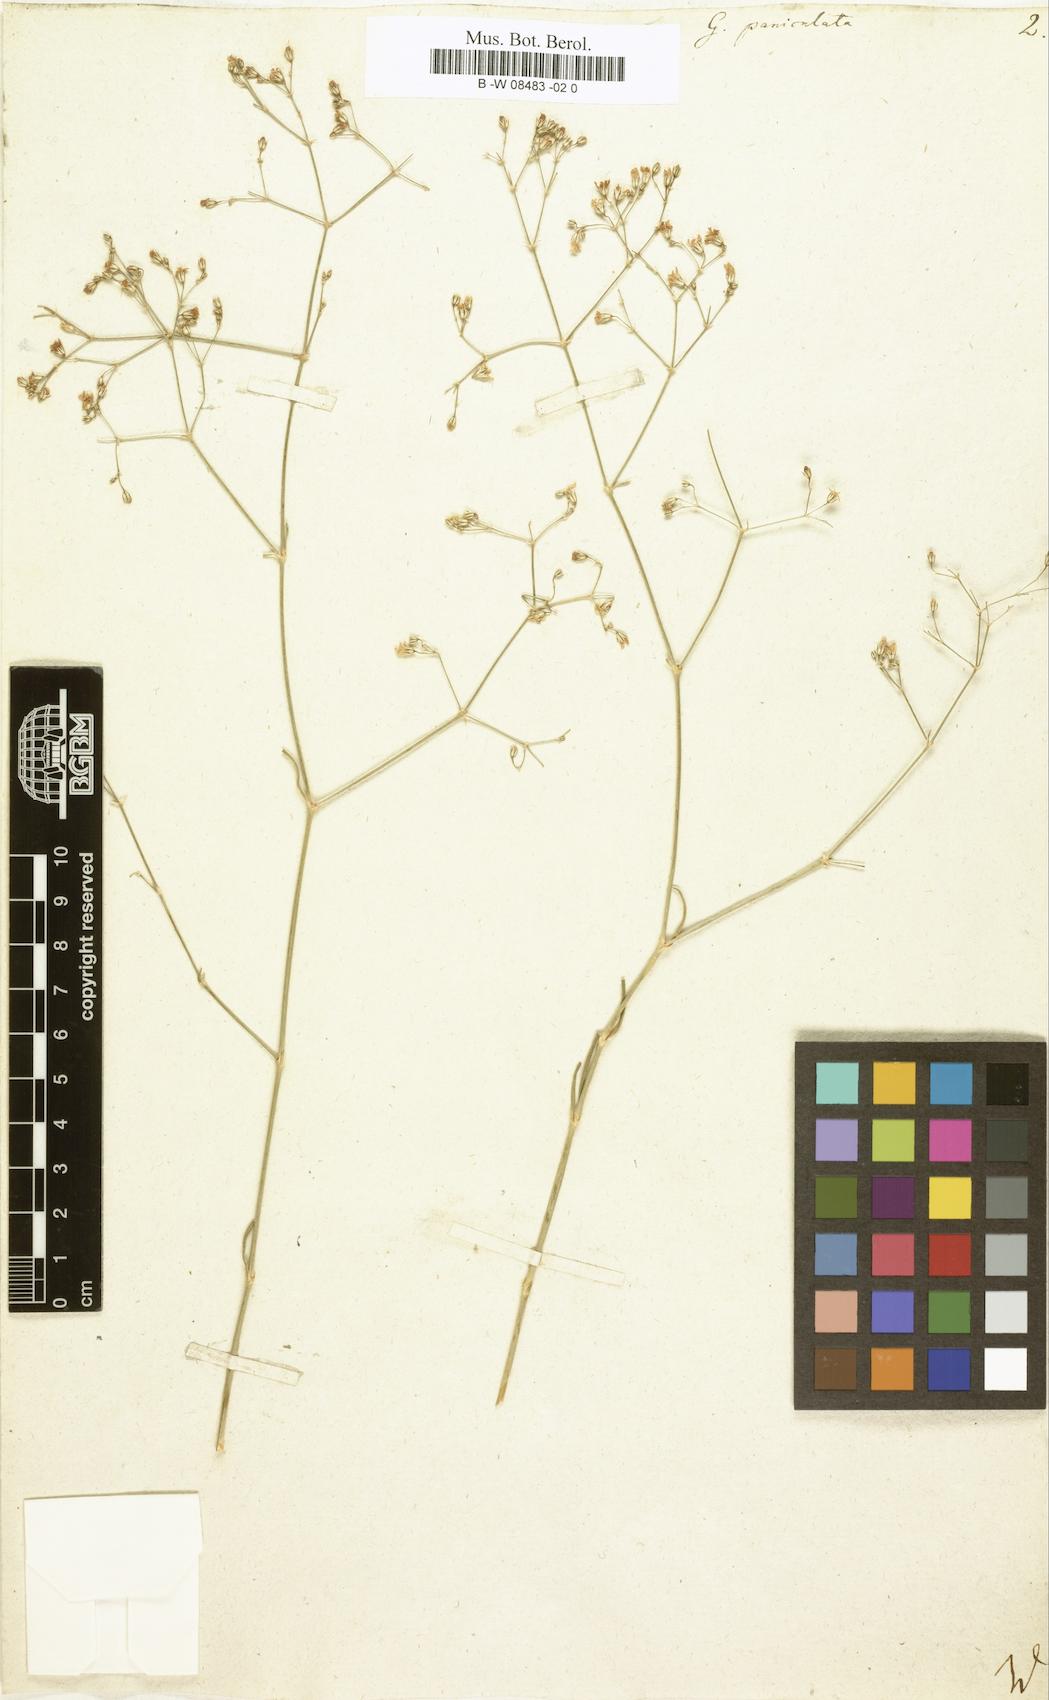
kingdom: Plantae
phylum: Tracheophyta
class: Magnoliopsida
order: Caryophyllales
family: Caryophyllaceae
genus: Gypsophila
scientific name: Gypsophila paniculata
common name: Baby's-breath
